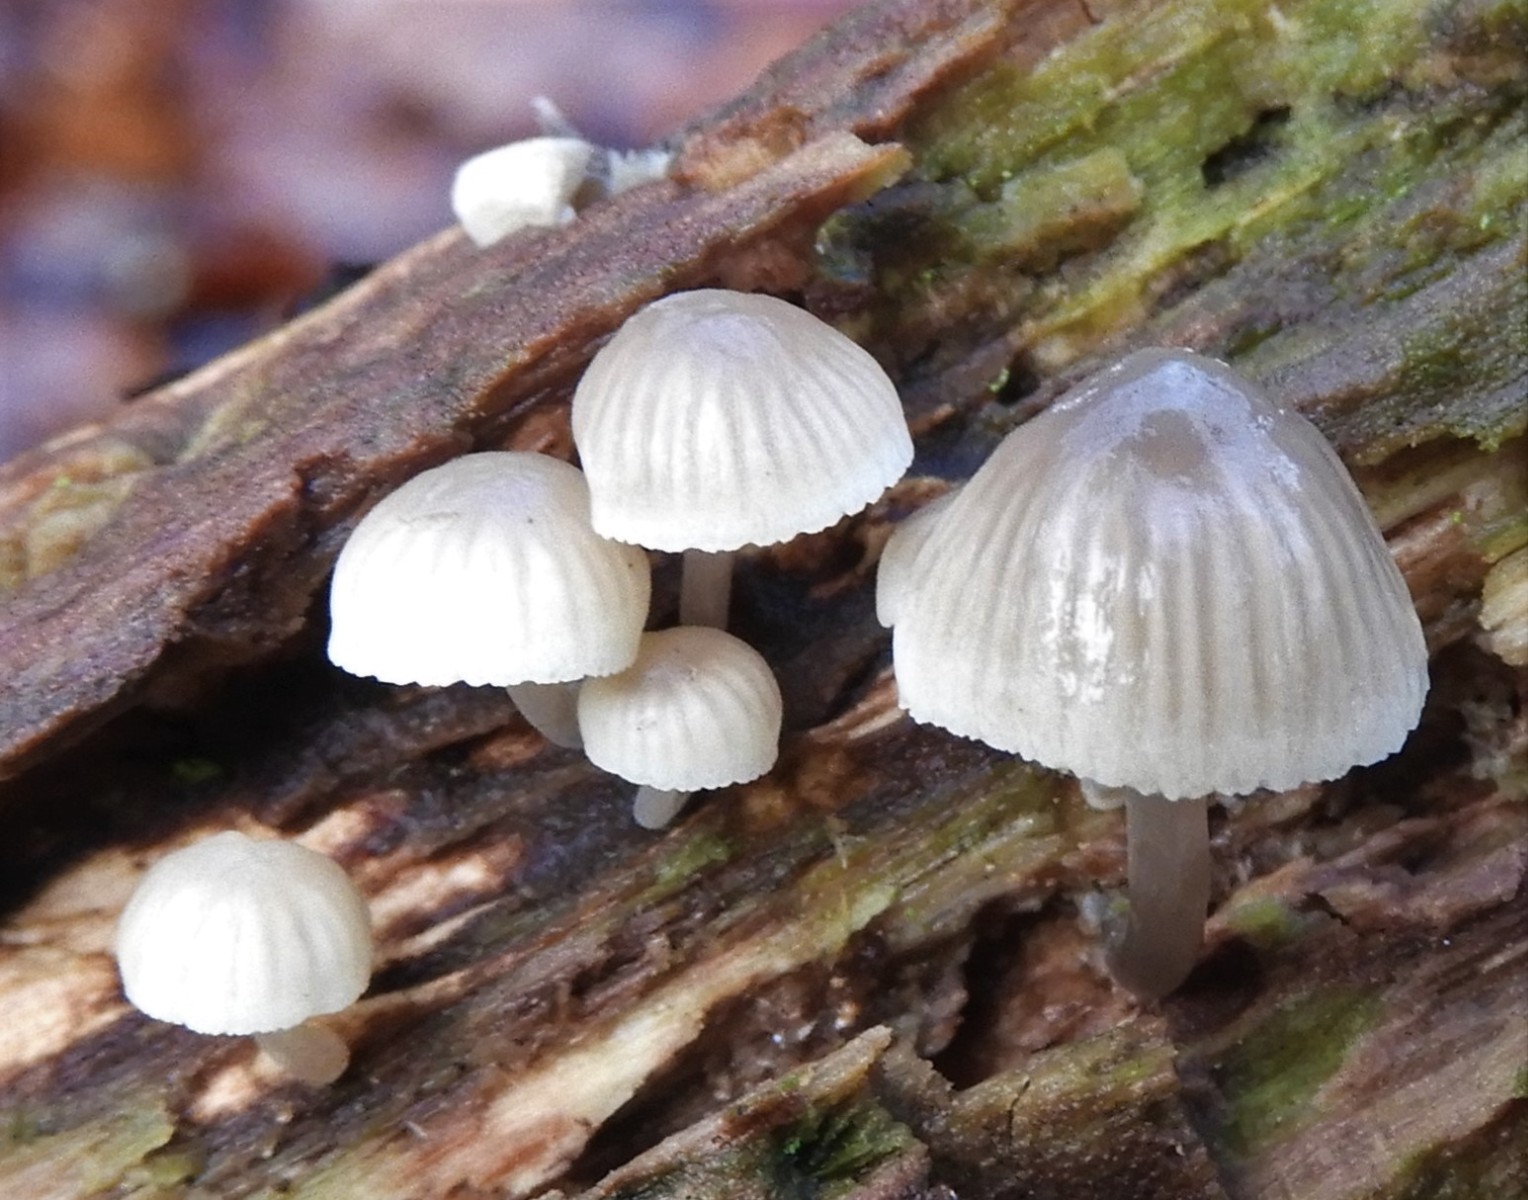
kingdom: Fungi
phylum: Basidiomycota
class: Agaricomycetes
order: Agaricales
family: Mycenaceae
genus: Mycena
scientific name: Mycena arcangeliana
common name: oliven-huesvamp
